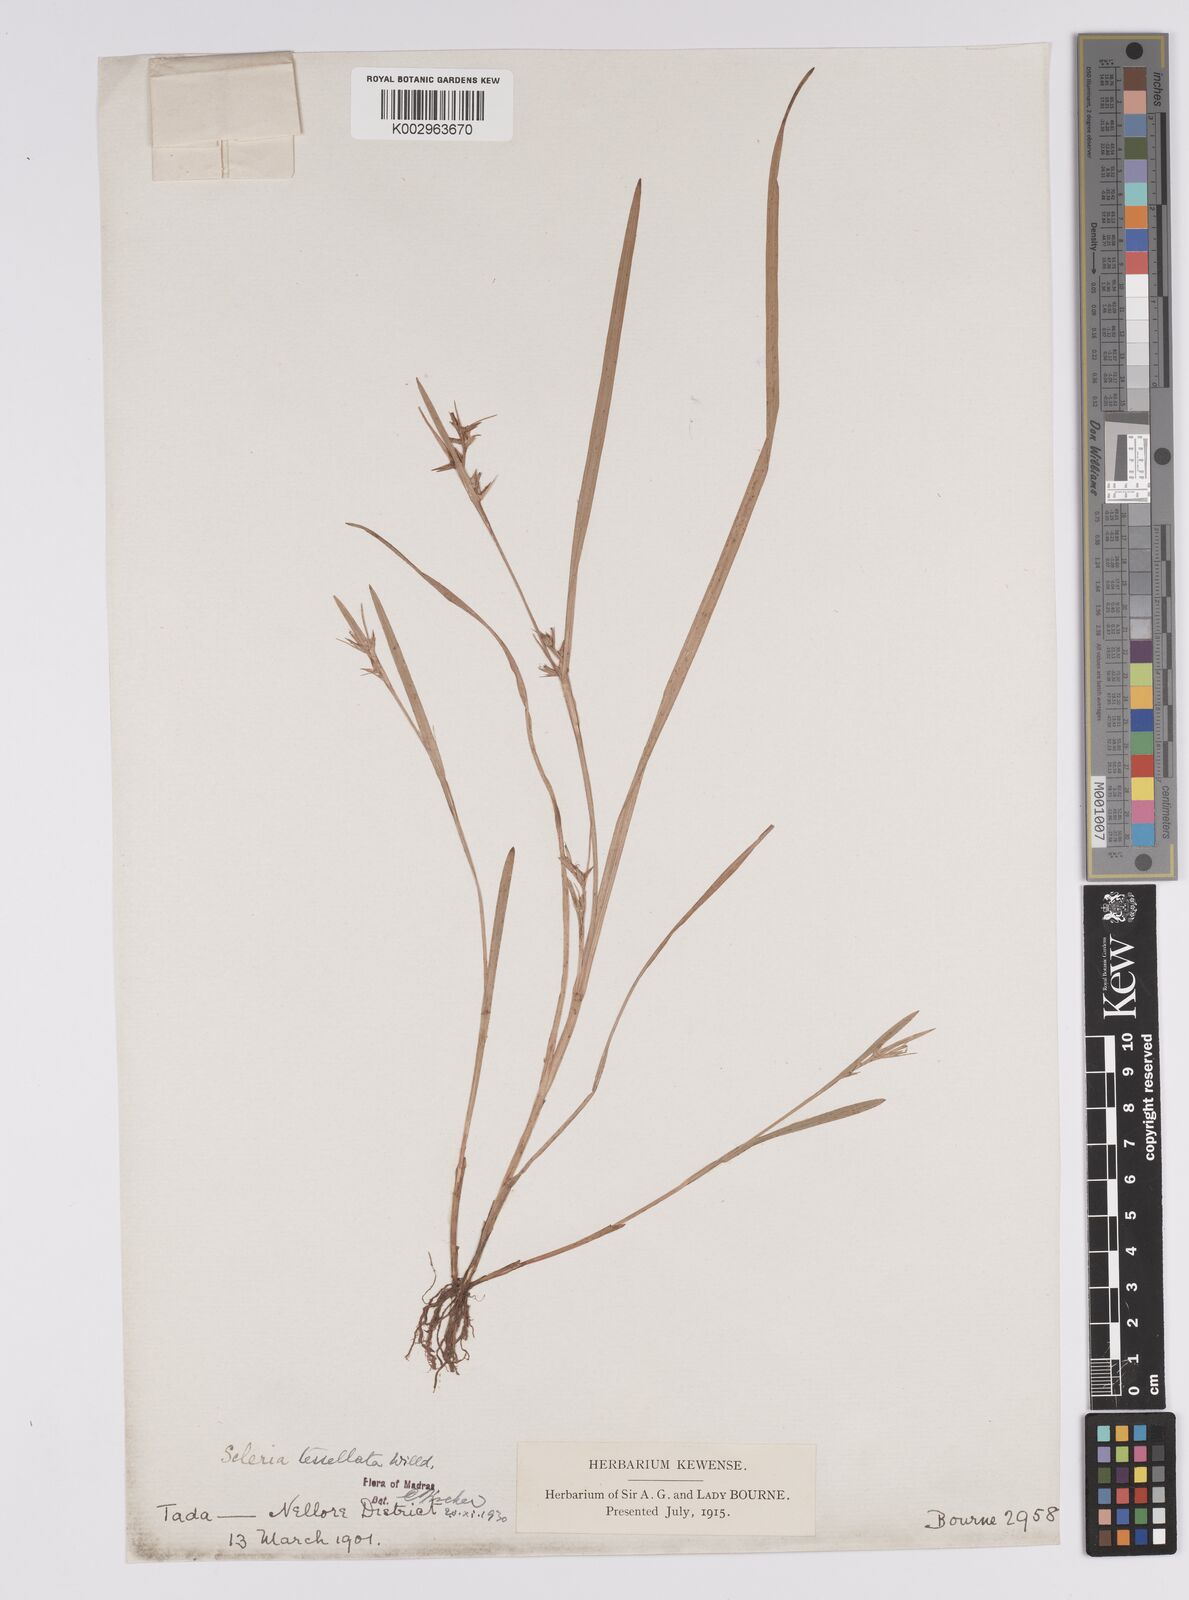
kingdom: Plantae
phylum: Tracheophyta
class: Liliopsida
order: Poales
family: Cyperaceae
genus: Scleria
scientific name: Scleria tessellata
